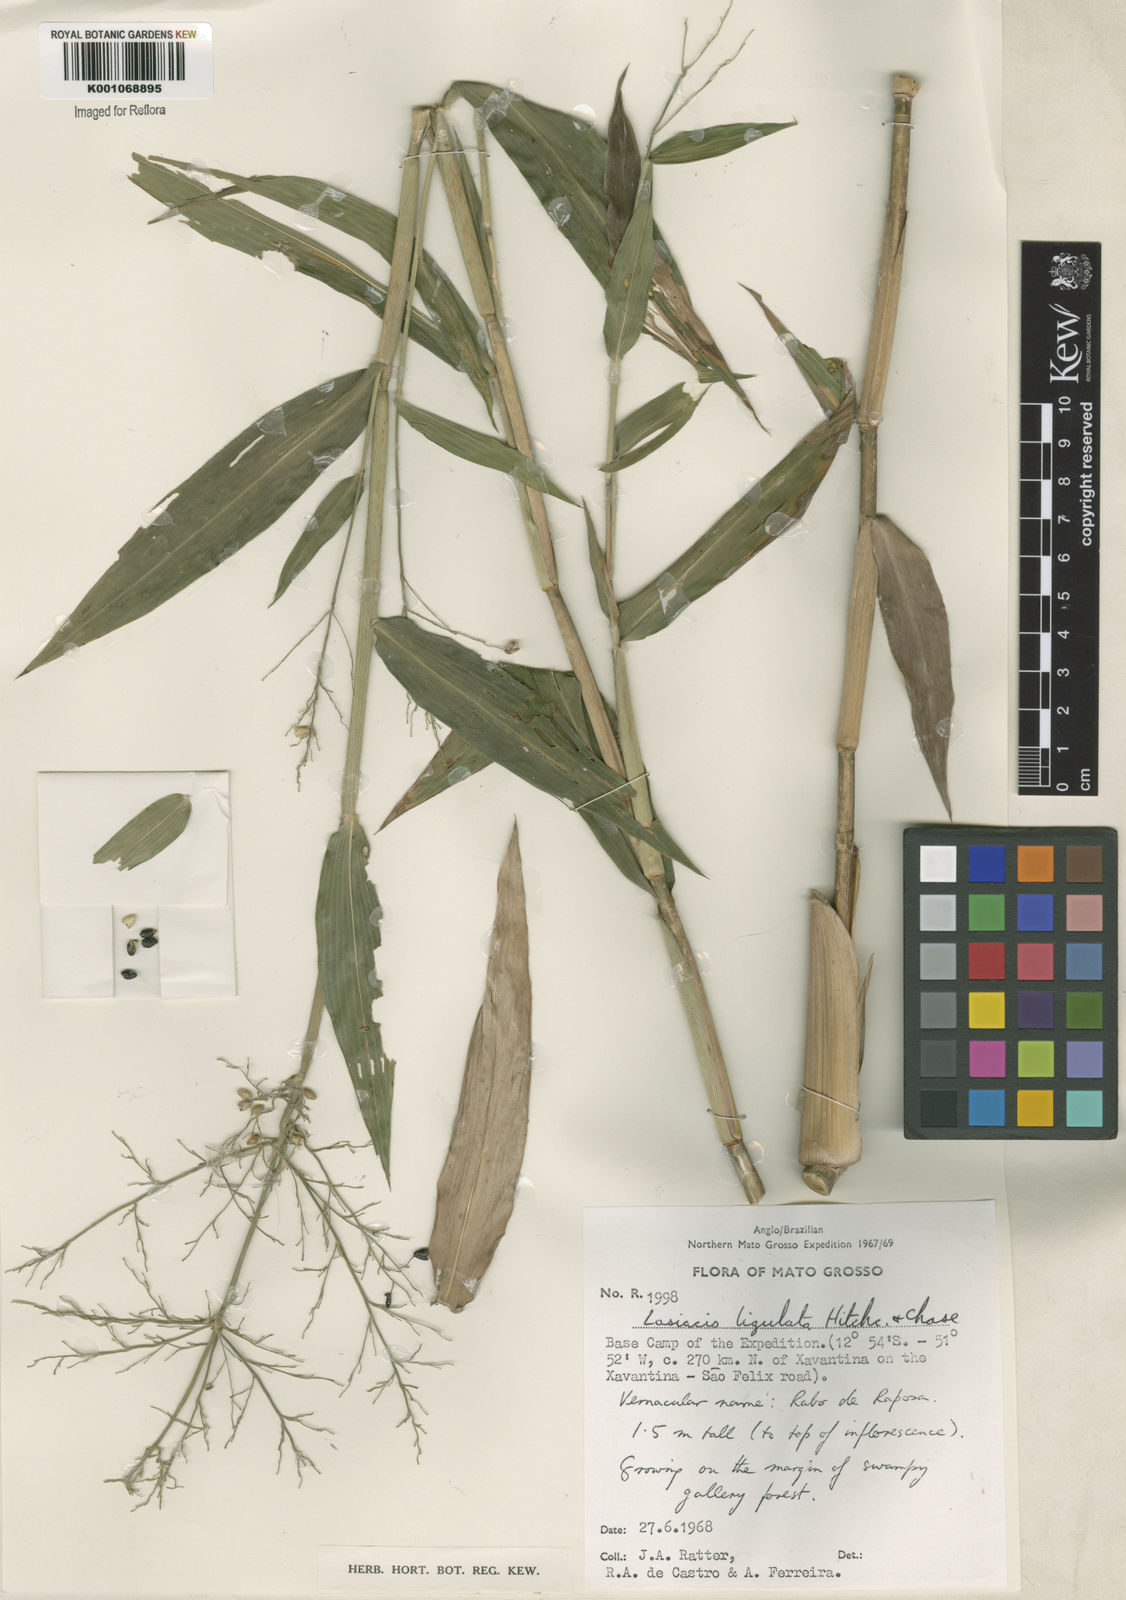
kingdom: Plantae
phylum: Tracheophyta
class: Liliopsida
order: Poales
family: Poaceae
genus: Lasiacis
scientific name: Lasiacis ligulata
